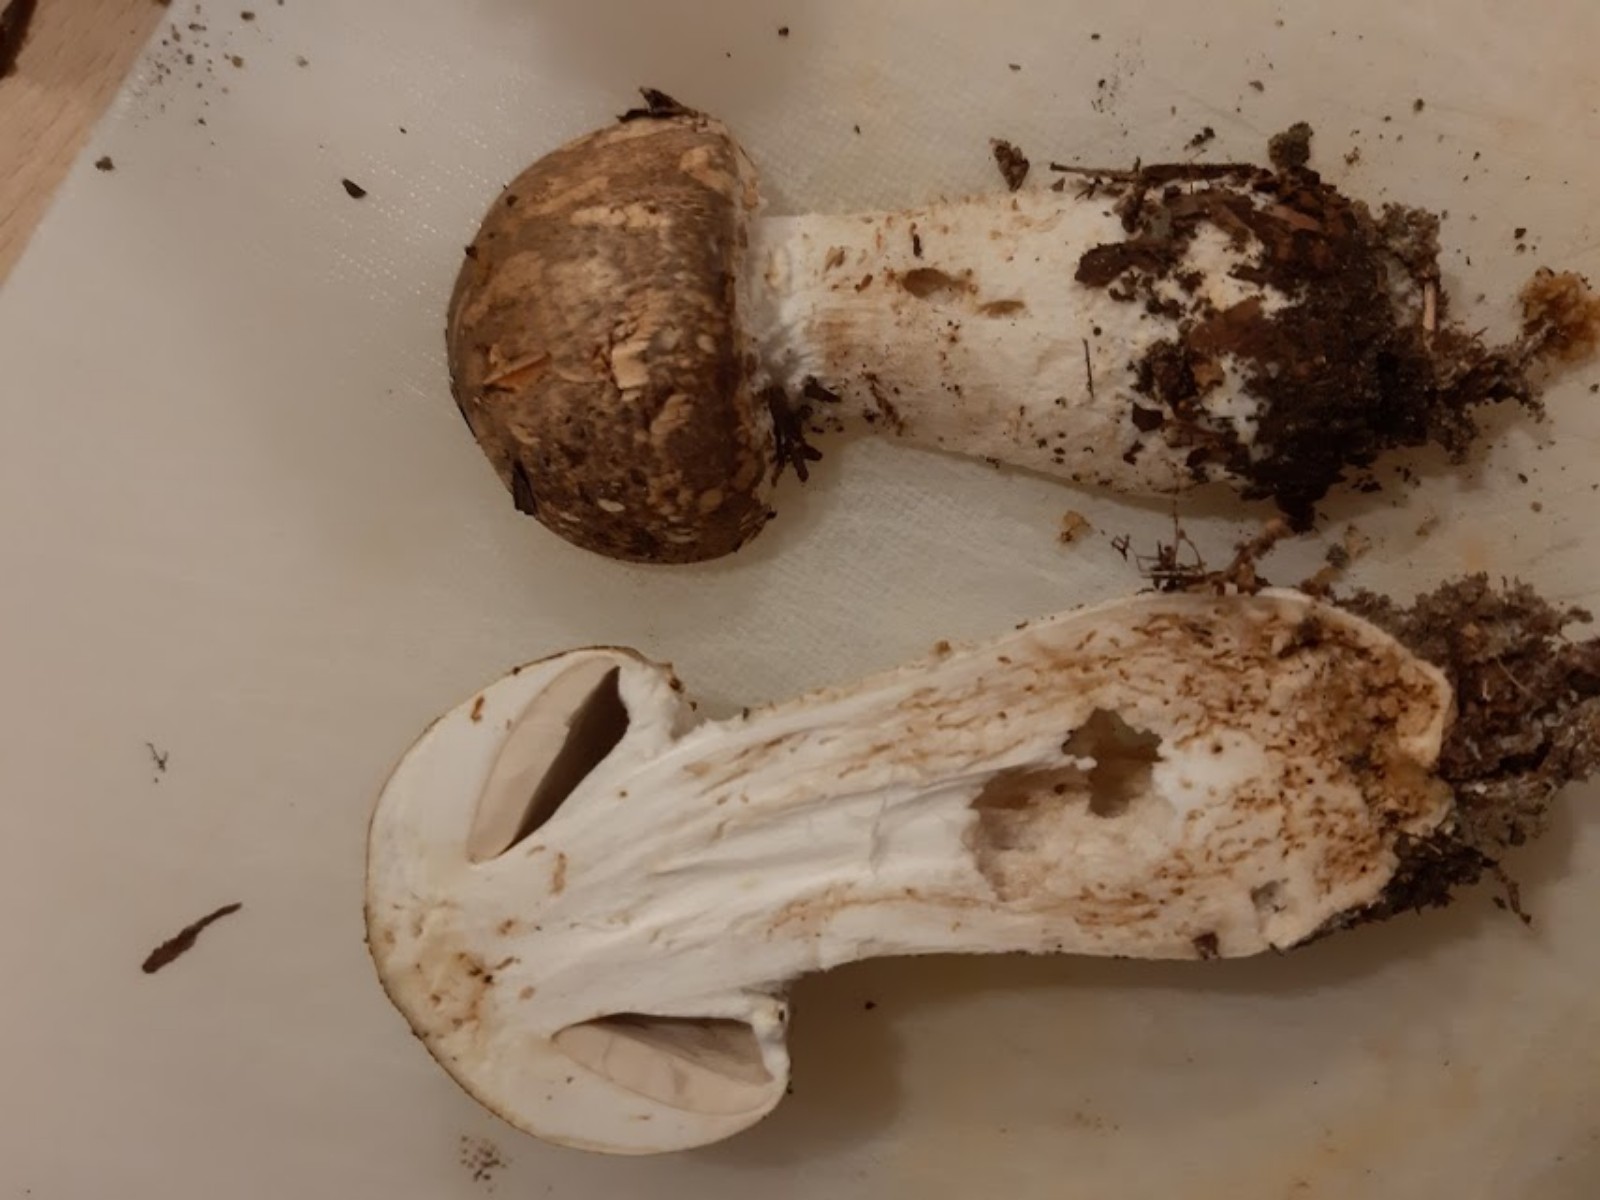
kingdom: Fungi
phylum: Basidiomycota
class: Agaricomycetes
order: Agaricales
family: Agaricaceae
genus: Agaricus
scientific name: Agaricus augustus
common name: prægtig champignon
